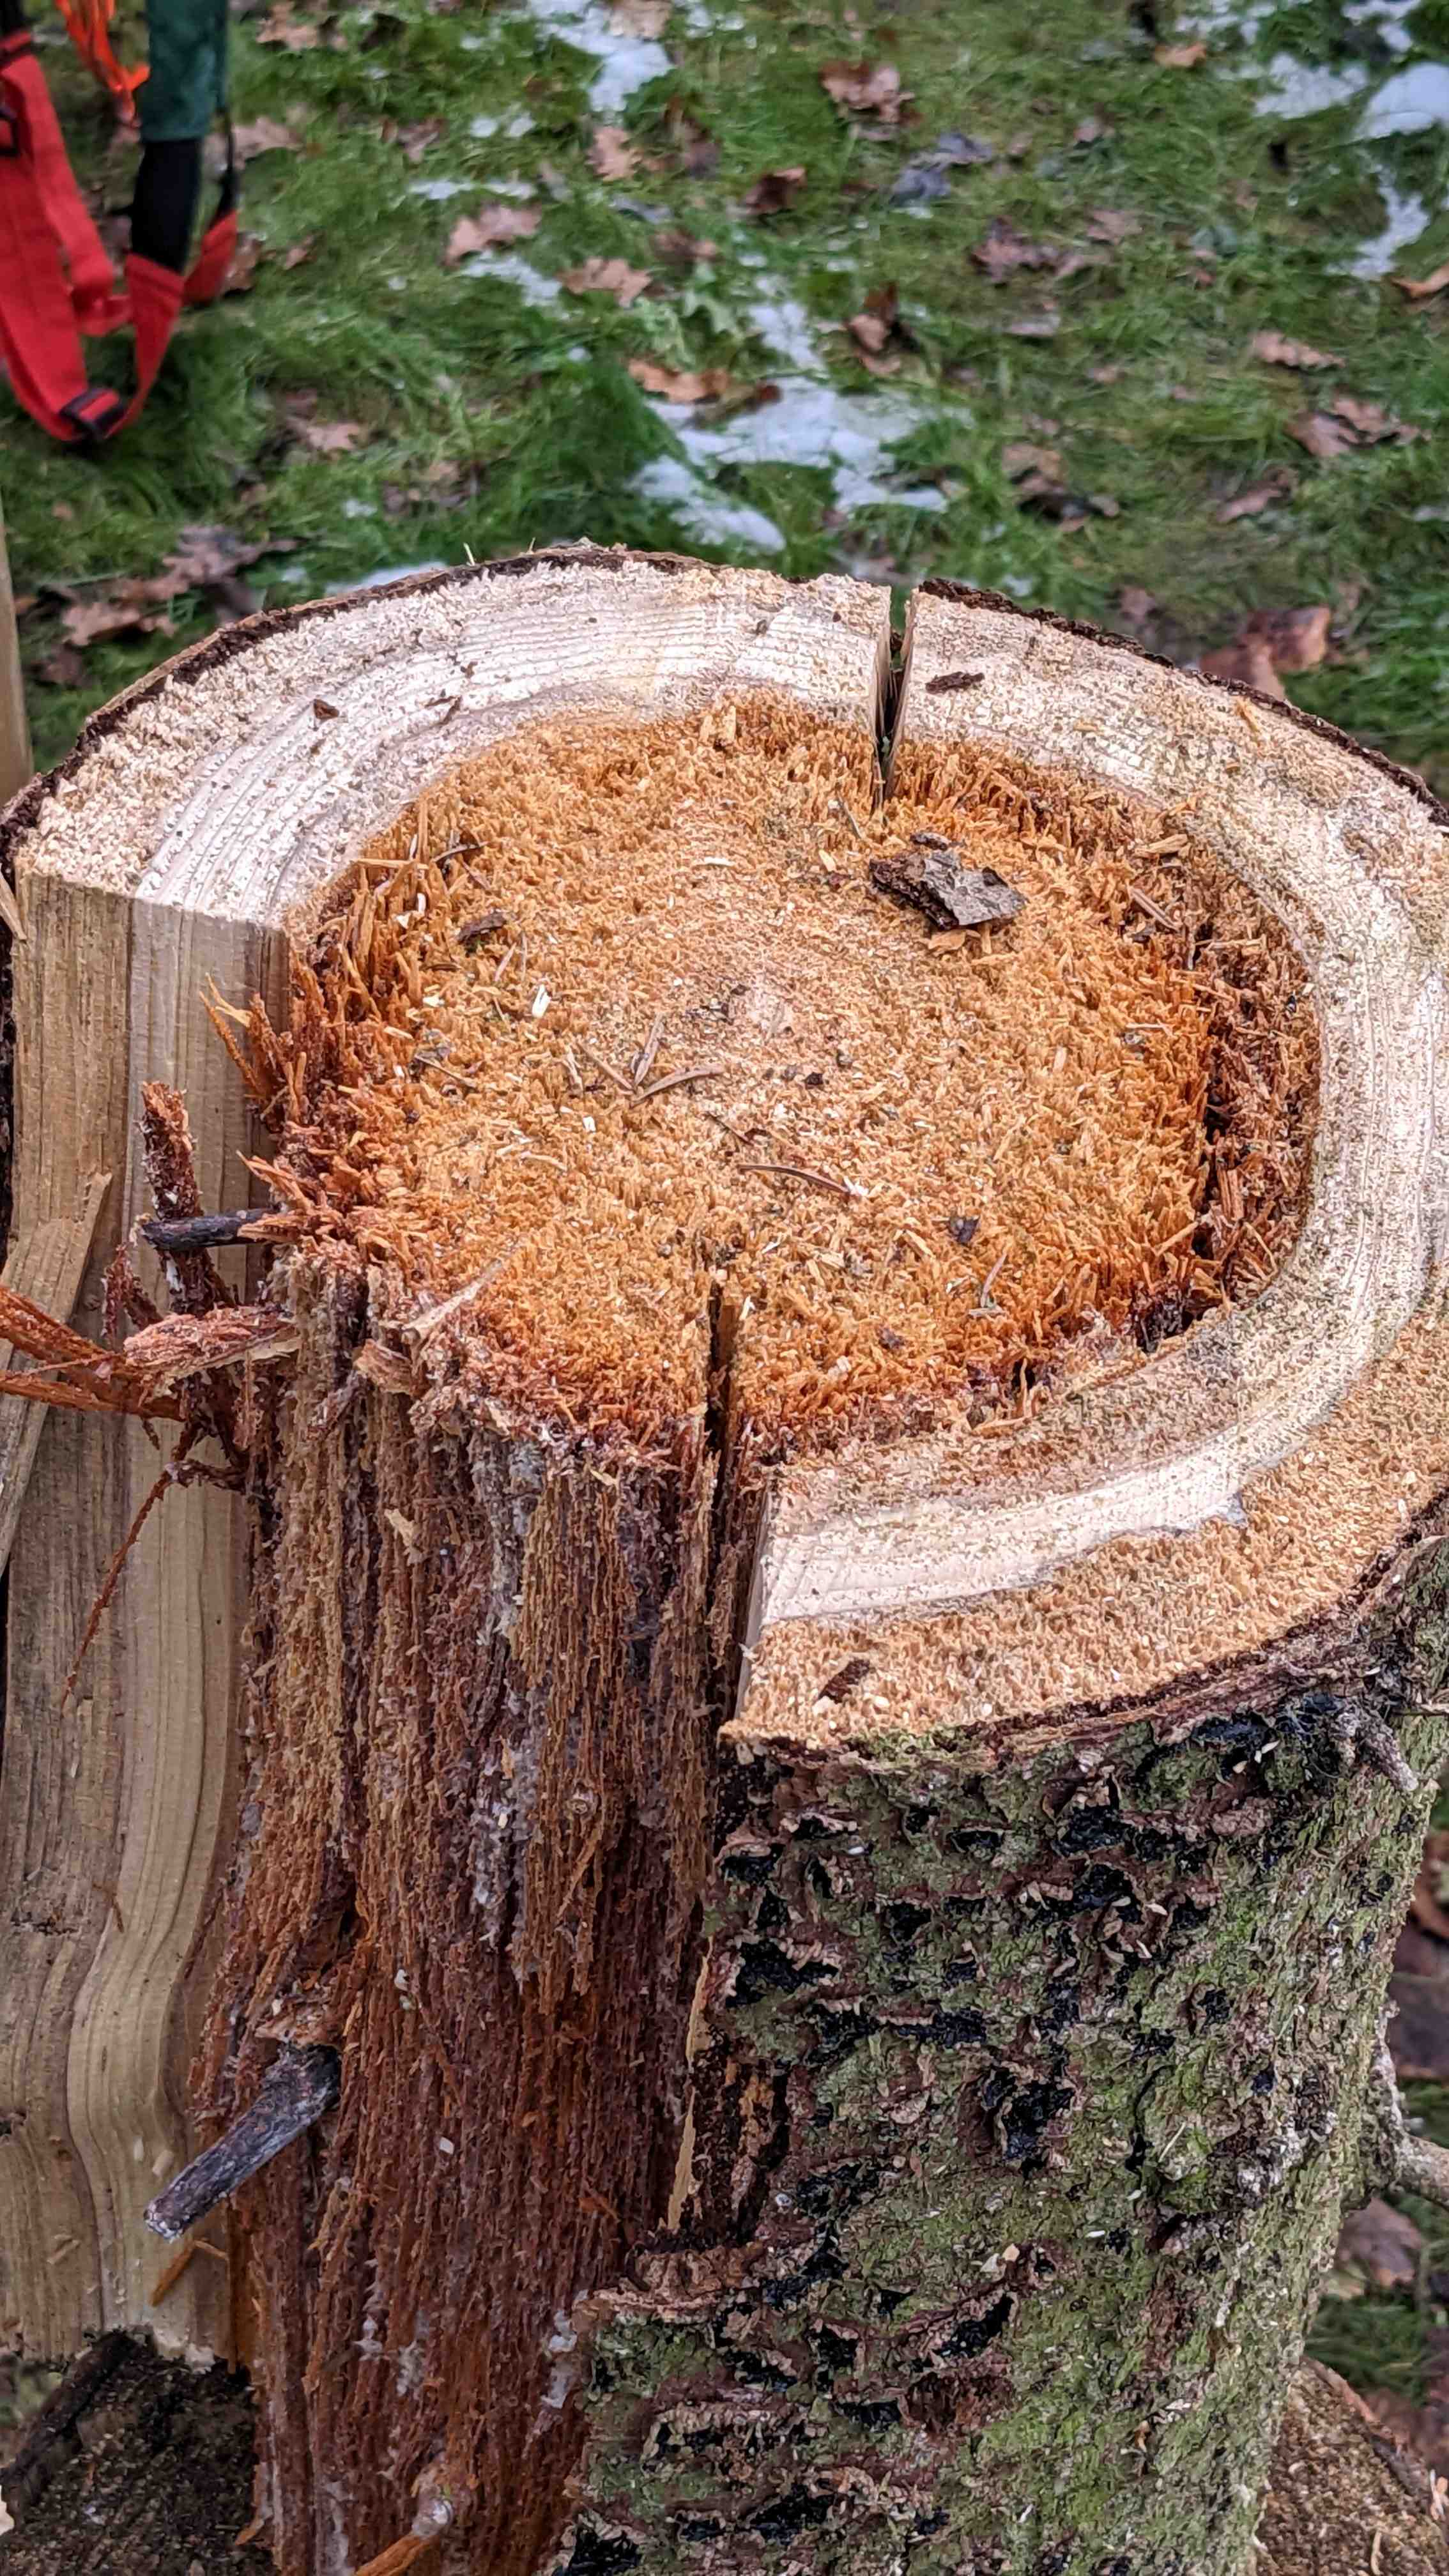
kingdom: Fungi
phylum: Basidiomycota
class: Agaricomycetes
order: Auriculariales
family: Auriculariaceae
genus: Exidia
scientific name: Exidia pithya
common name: gran-bævretop
